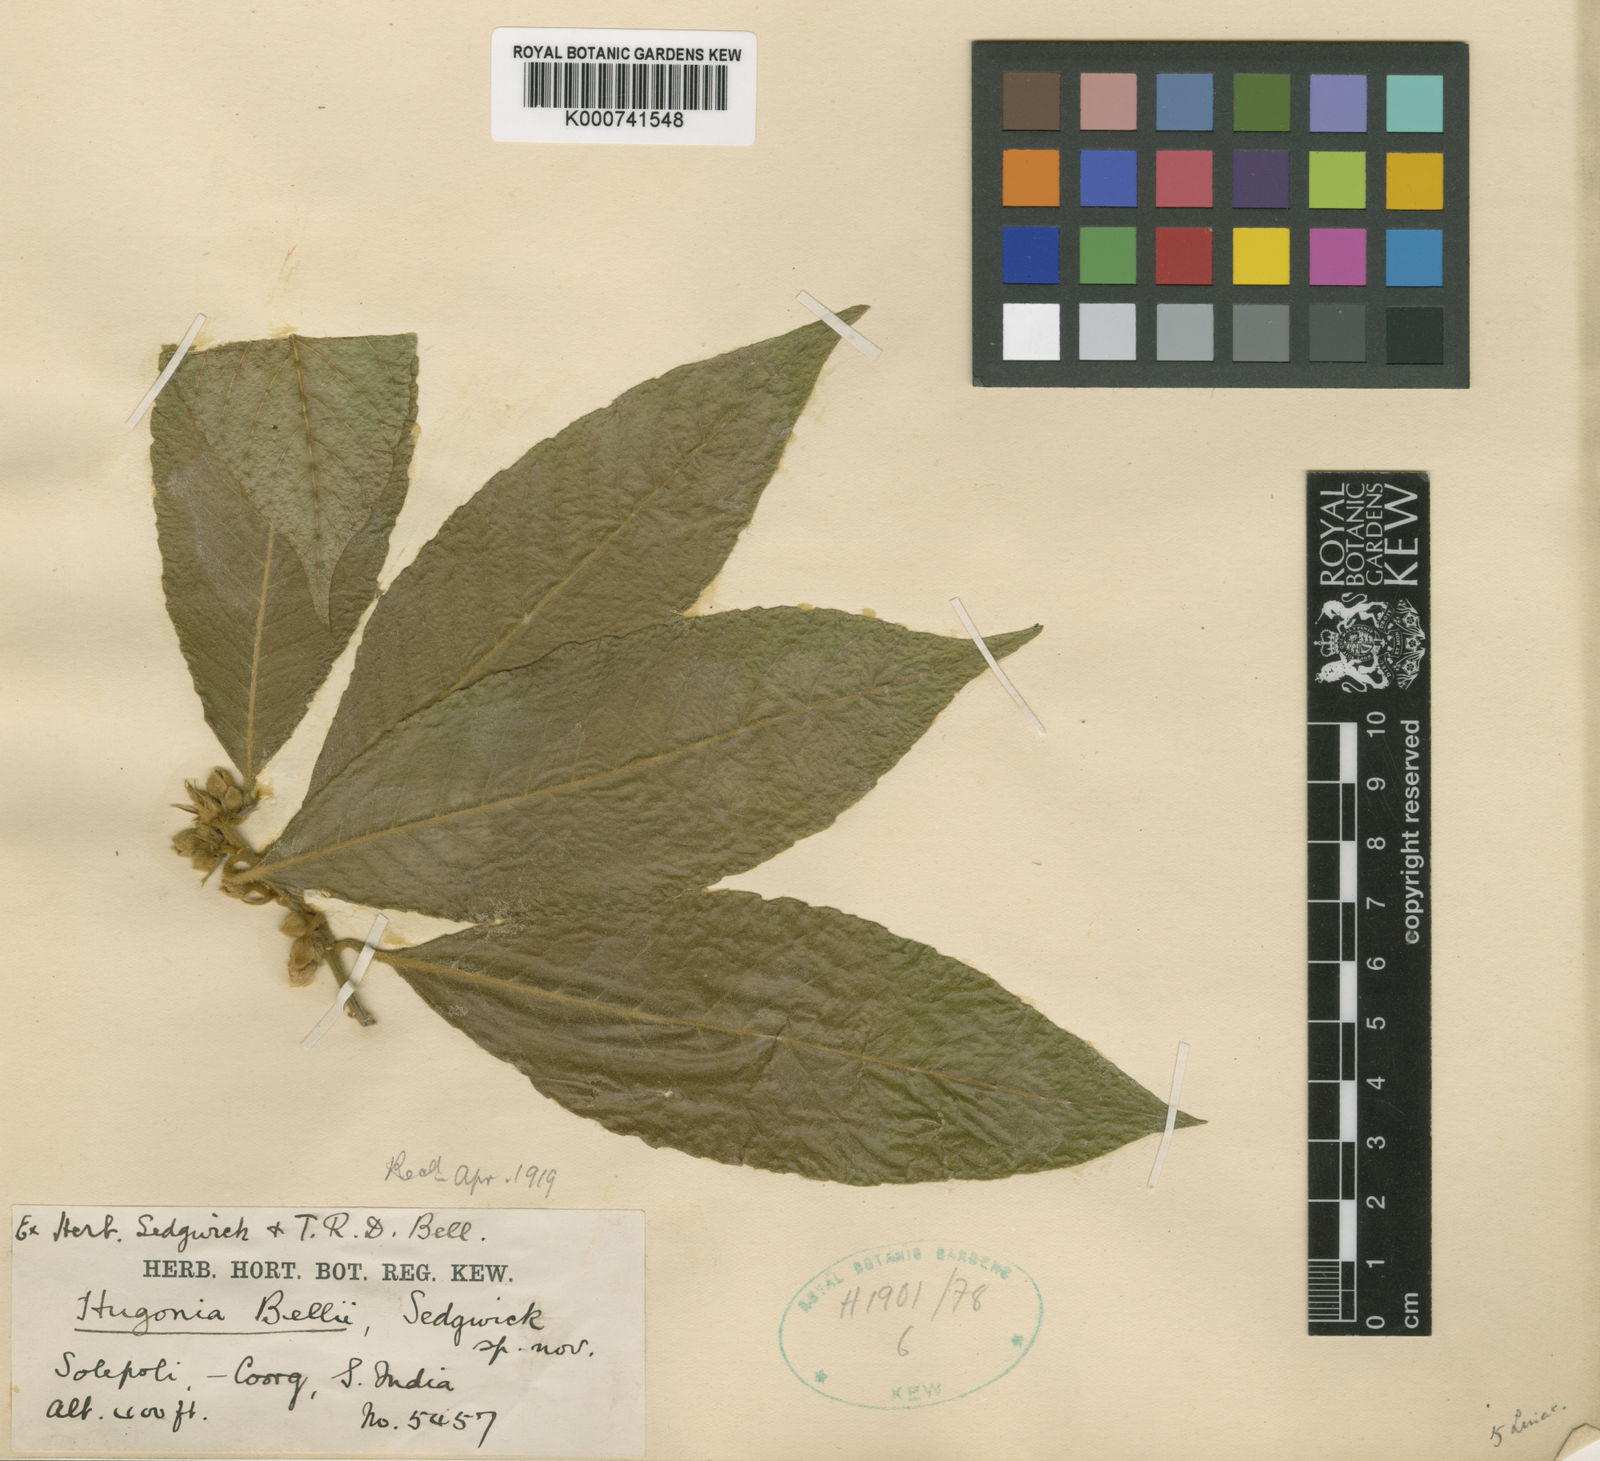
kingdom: Plantae
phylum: Tracheophyta
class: Magnoliopsida
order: Malpighiales
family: Linaceae
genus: Hugonia
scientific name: Hugonia belli
